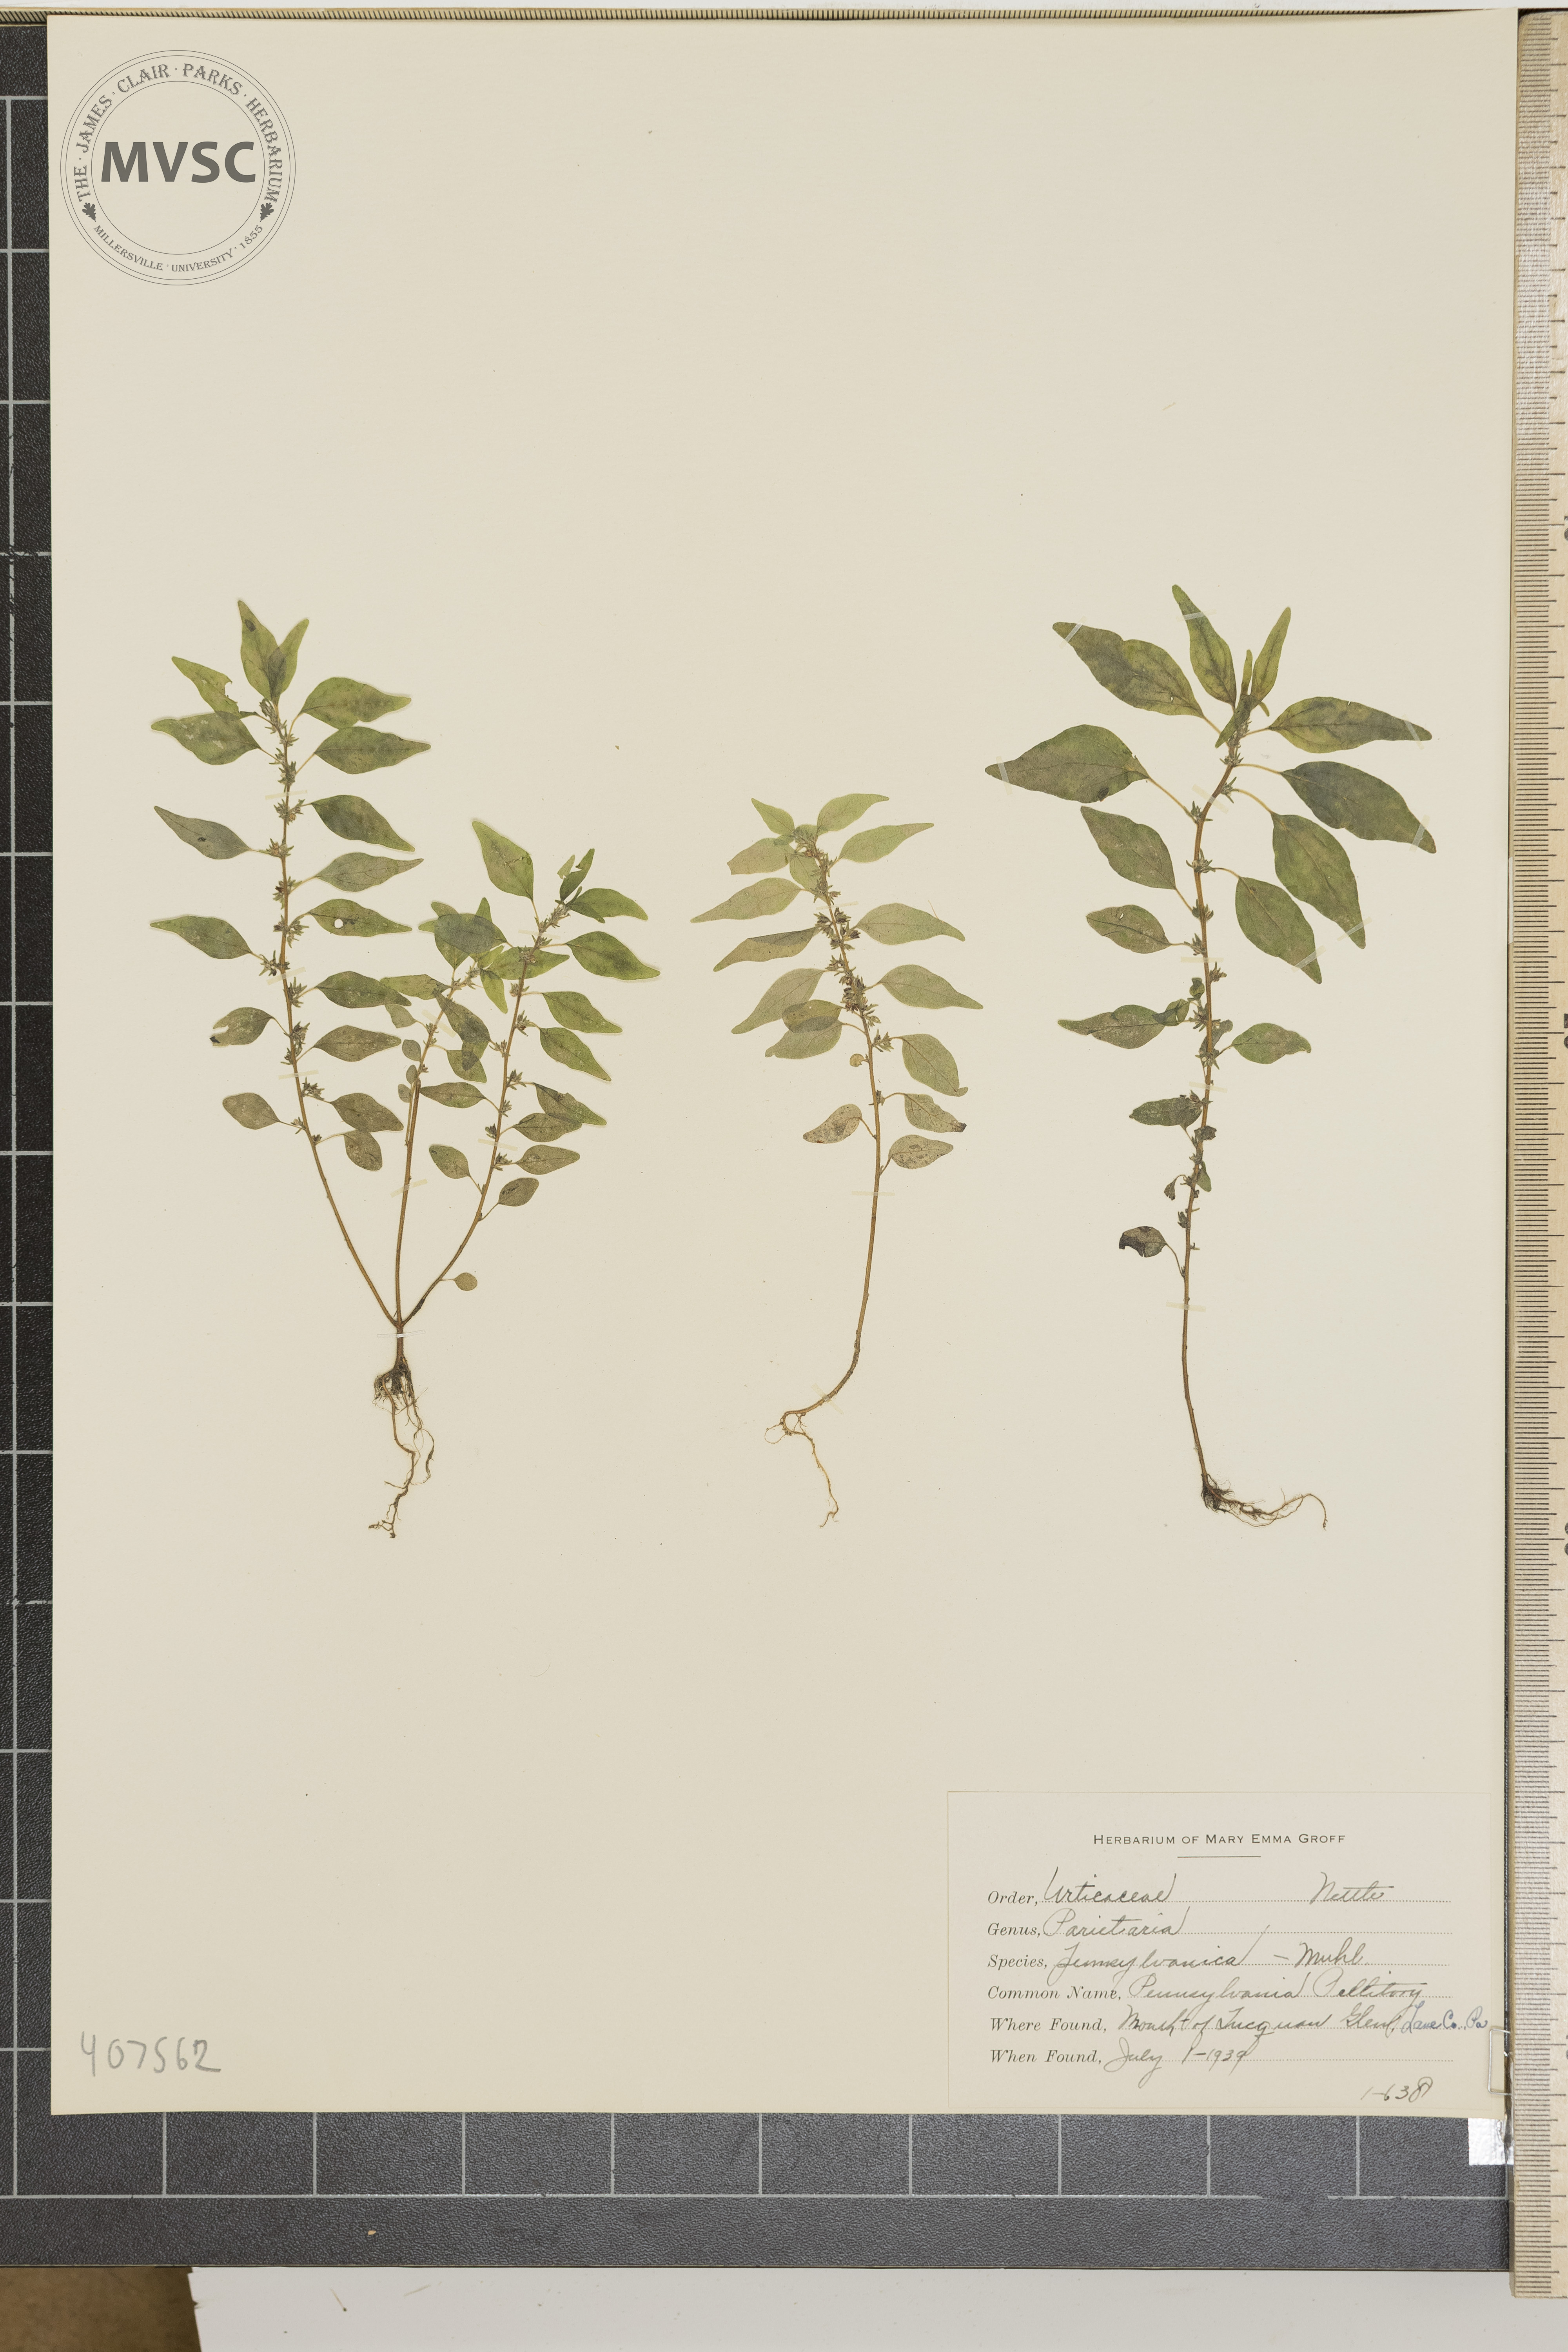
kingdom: Plantae
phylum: Tracheophyta
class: Magnoliopsida
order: Rosales
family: Urticaceae
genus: Parietaria
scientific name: Parietaria pensylvanica
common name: Pennsylvania Pellitory
